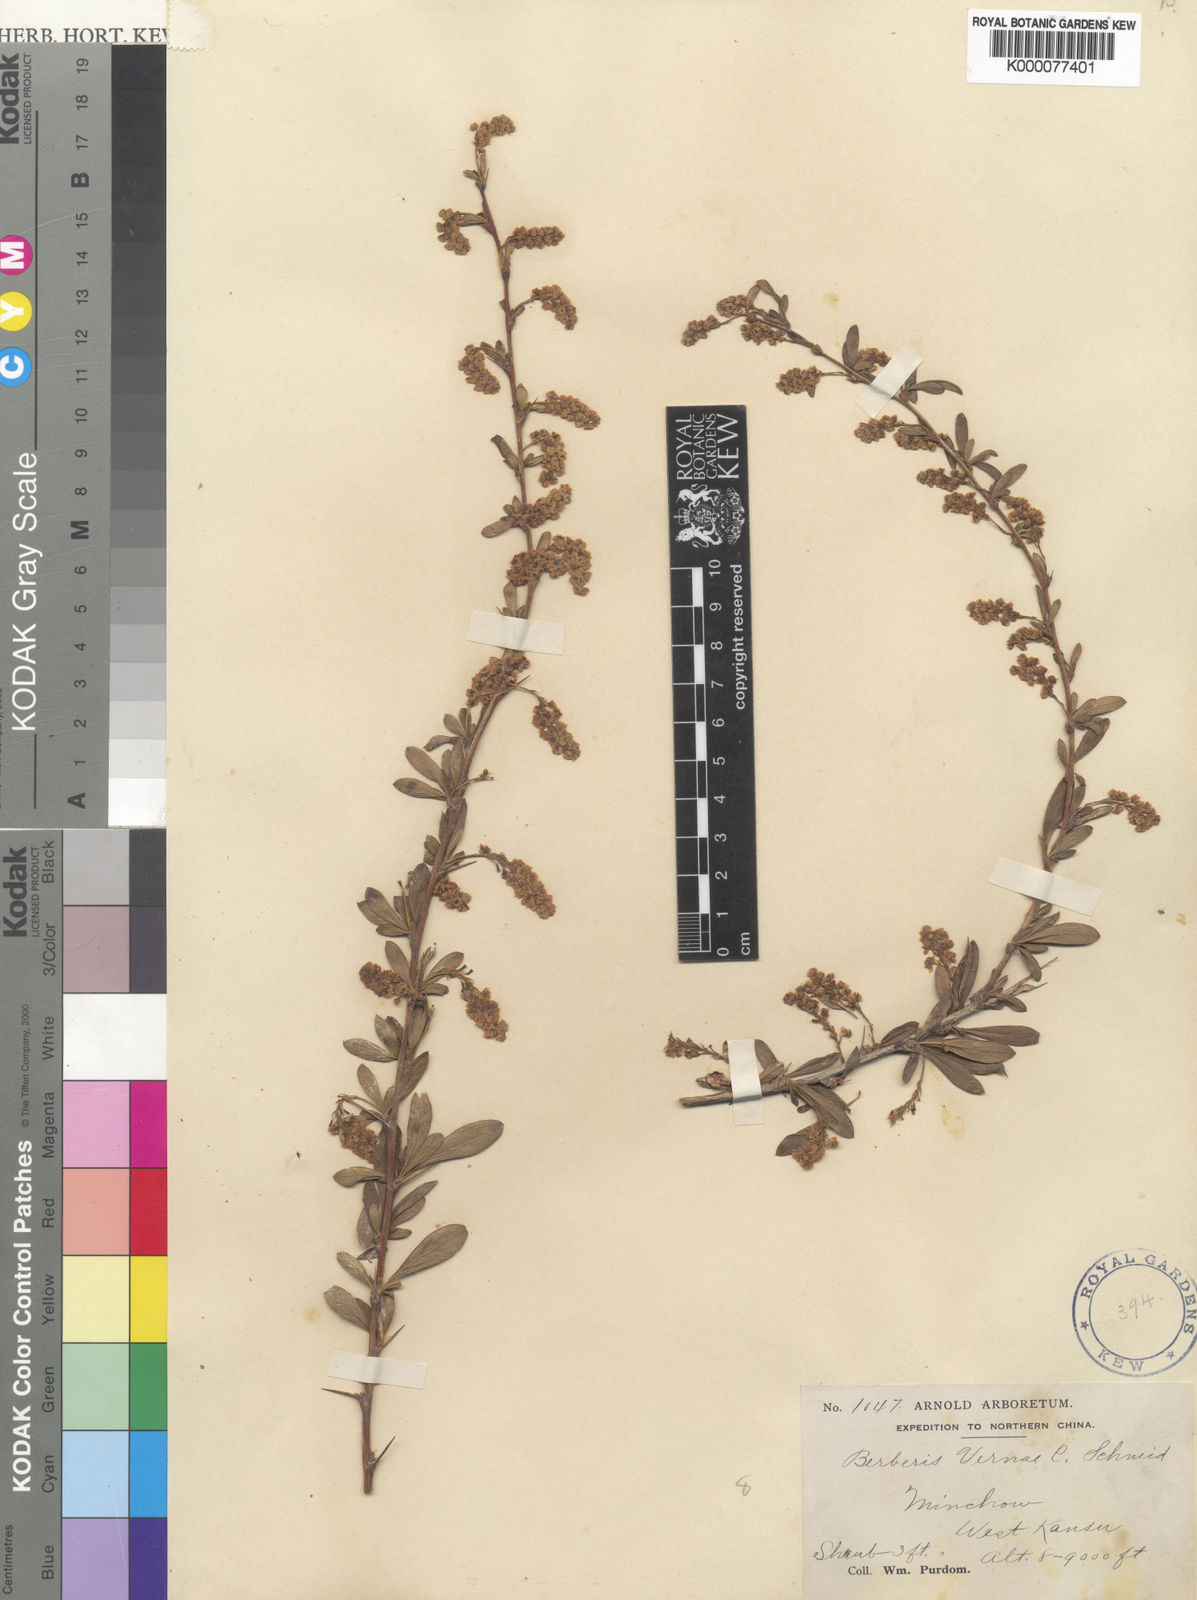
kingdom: Plantae
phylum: Tracheophyta
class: Magnoliopsida
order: Ranunculales
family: Berberidaceae
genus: Berberis
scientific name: Berberis caroli
